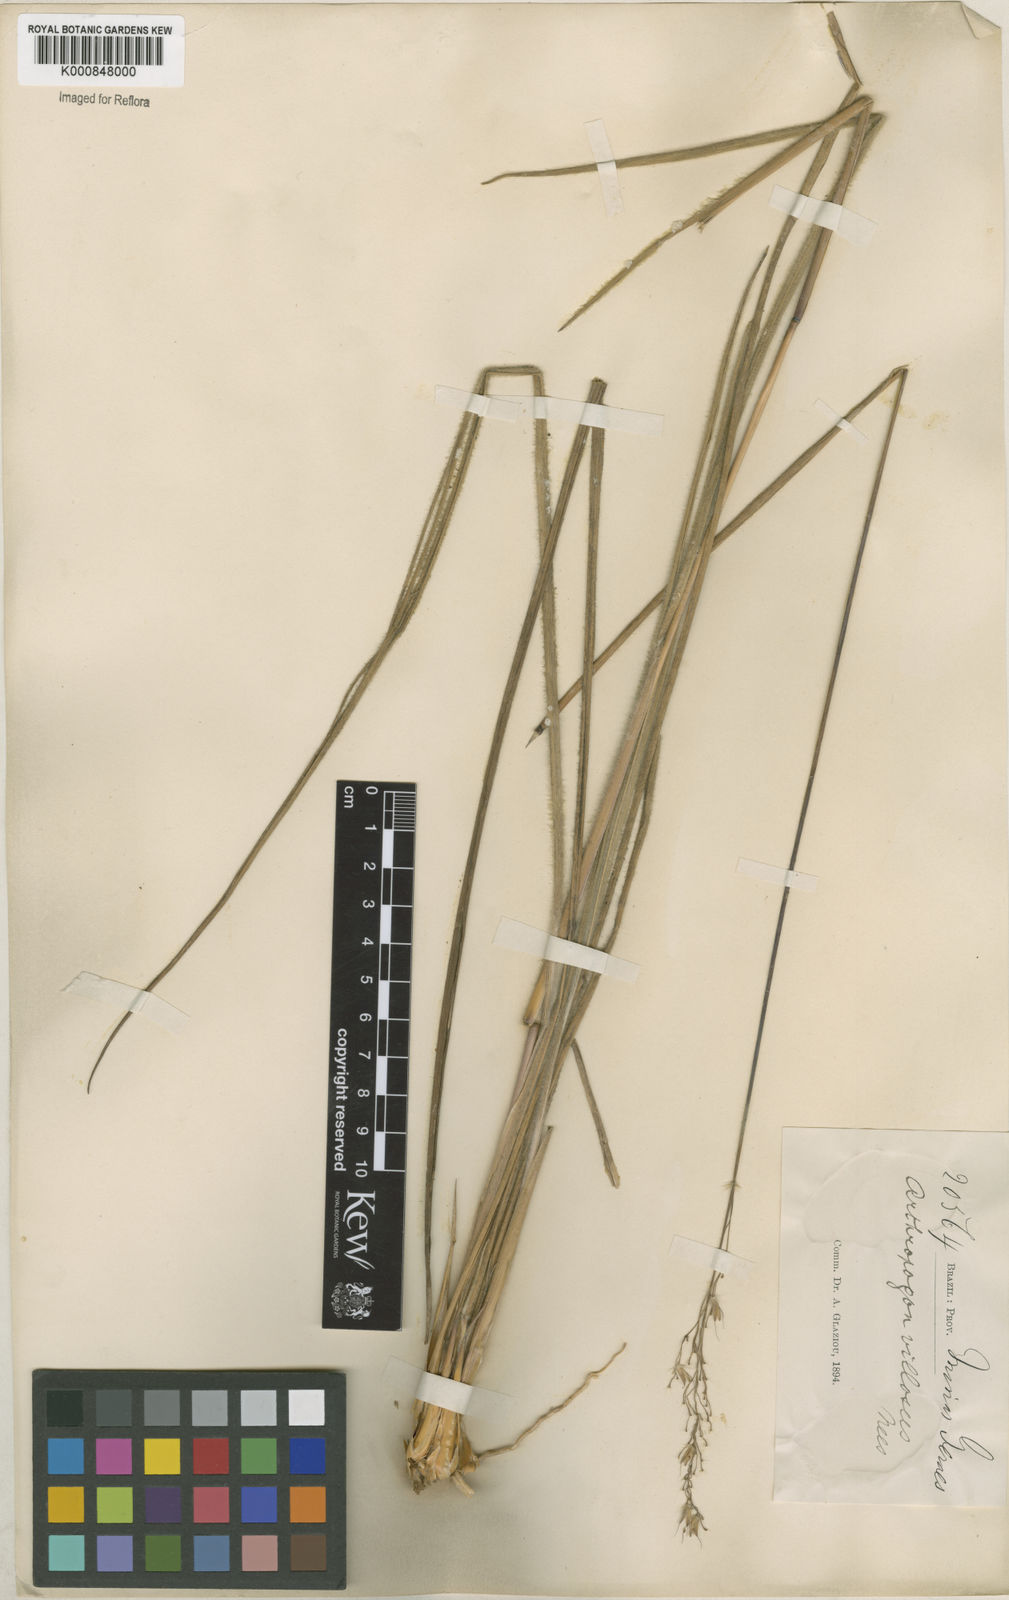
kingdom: Plantae
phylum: Tracheophyta
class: Liliopsida
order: Poales
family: Poaceae
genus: Arthropogon
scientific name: Arthropogon villosus
